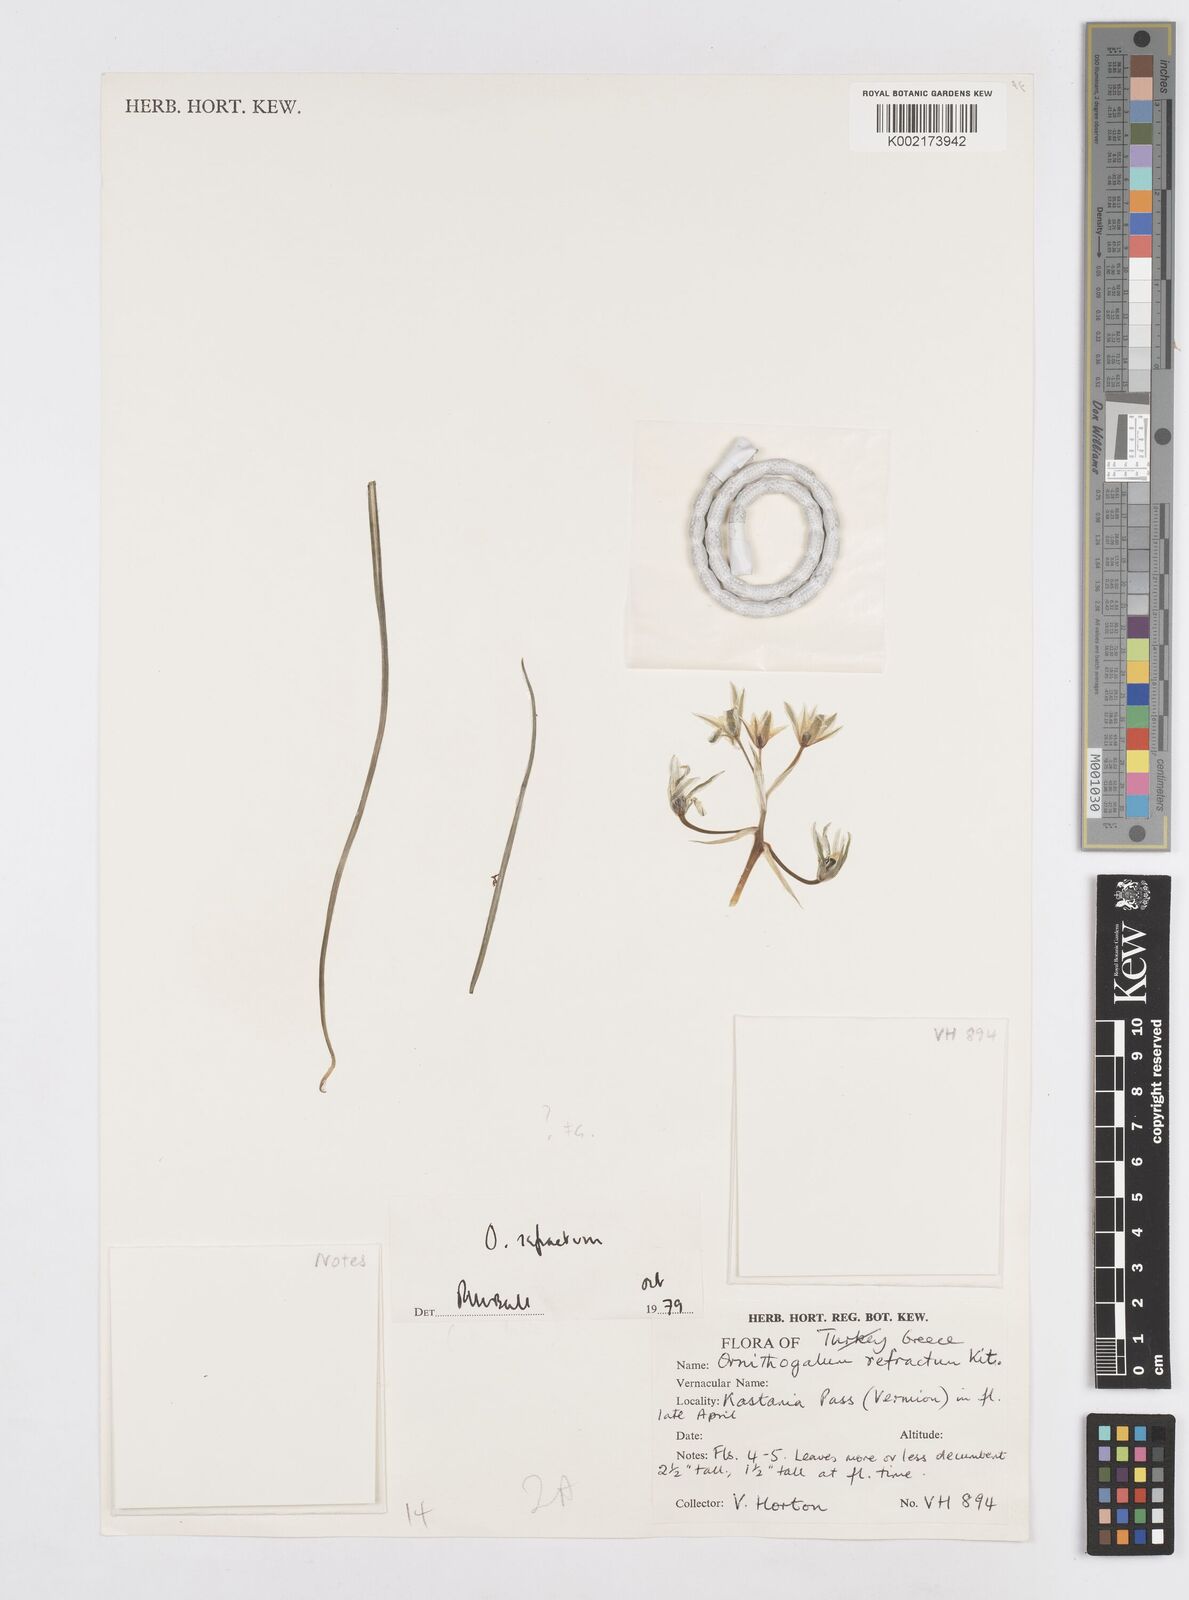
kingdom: Plantae
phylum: Tracheophyta
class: Liliopsida
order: Asparagales
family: Asparagaceae
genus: Ornithogalum
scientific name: Ornithogalum refractum
